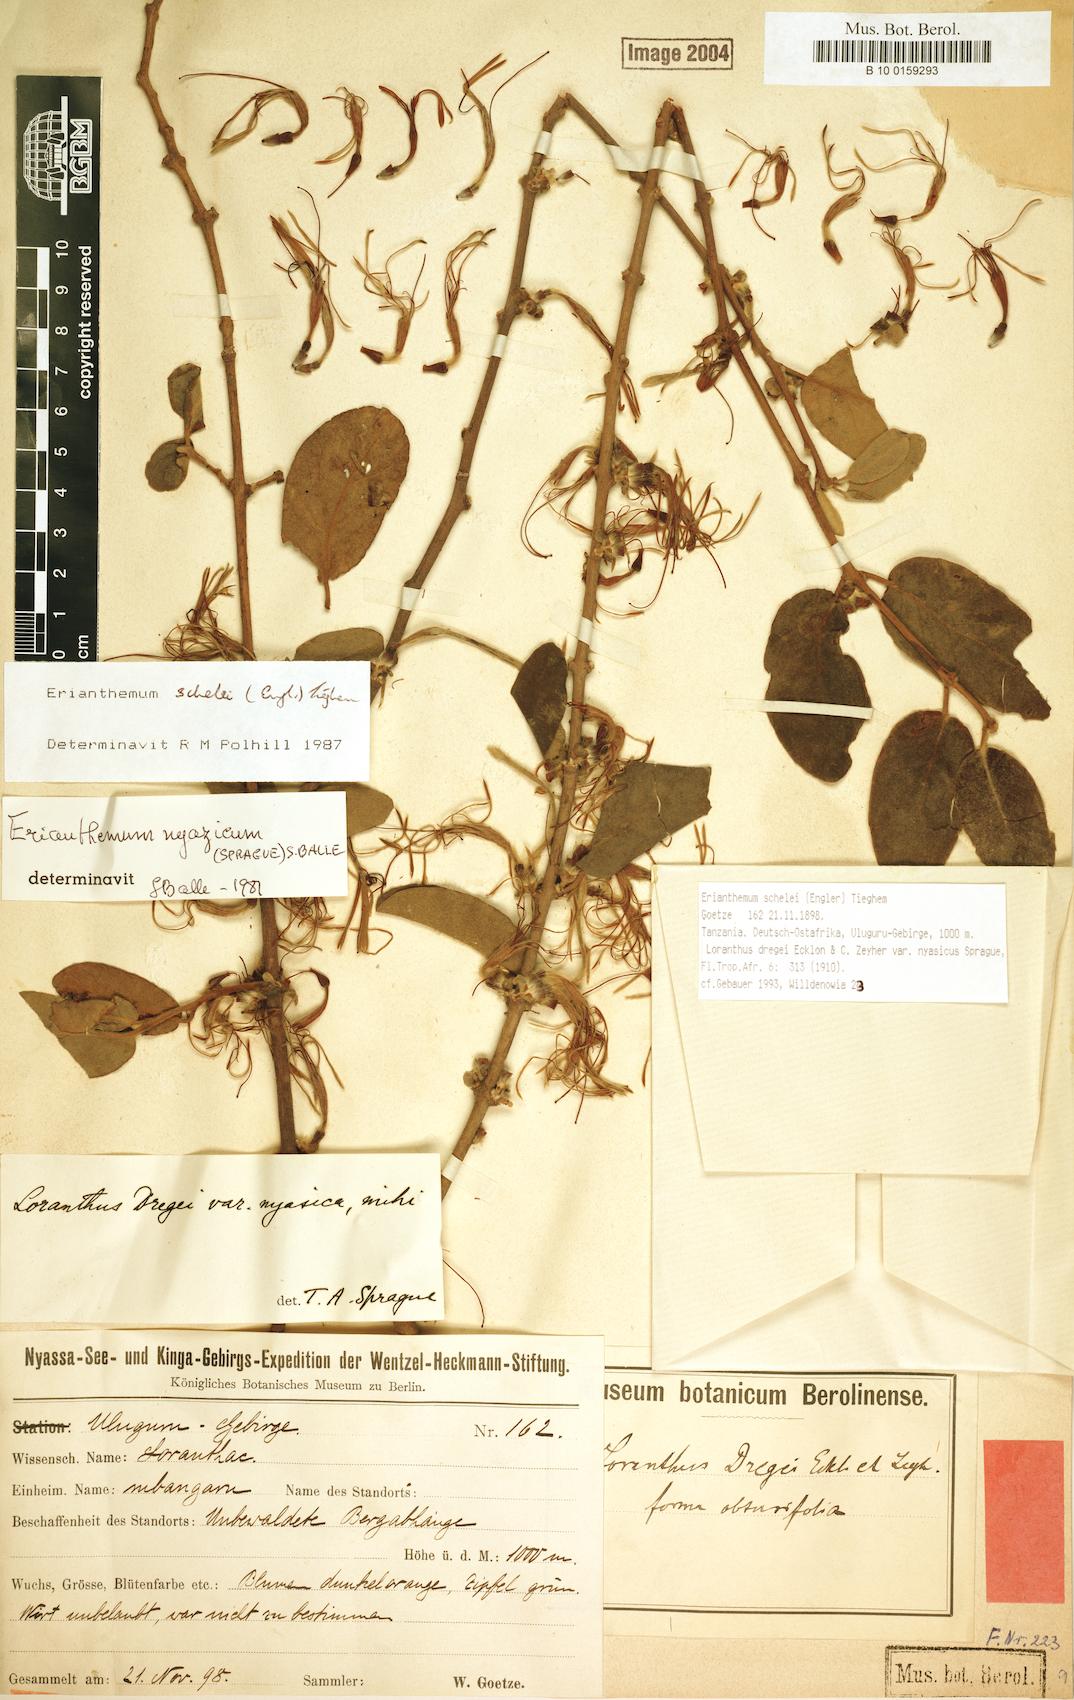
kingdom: Plantae
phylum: Tracheophyta
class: Magnoliopsida
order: Santalales
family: Loranthaceae
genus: Erianthemum
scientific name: Erianthemum schelei
